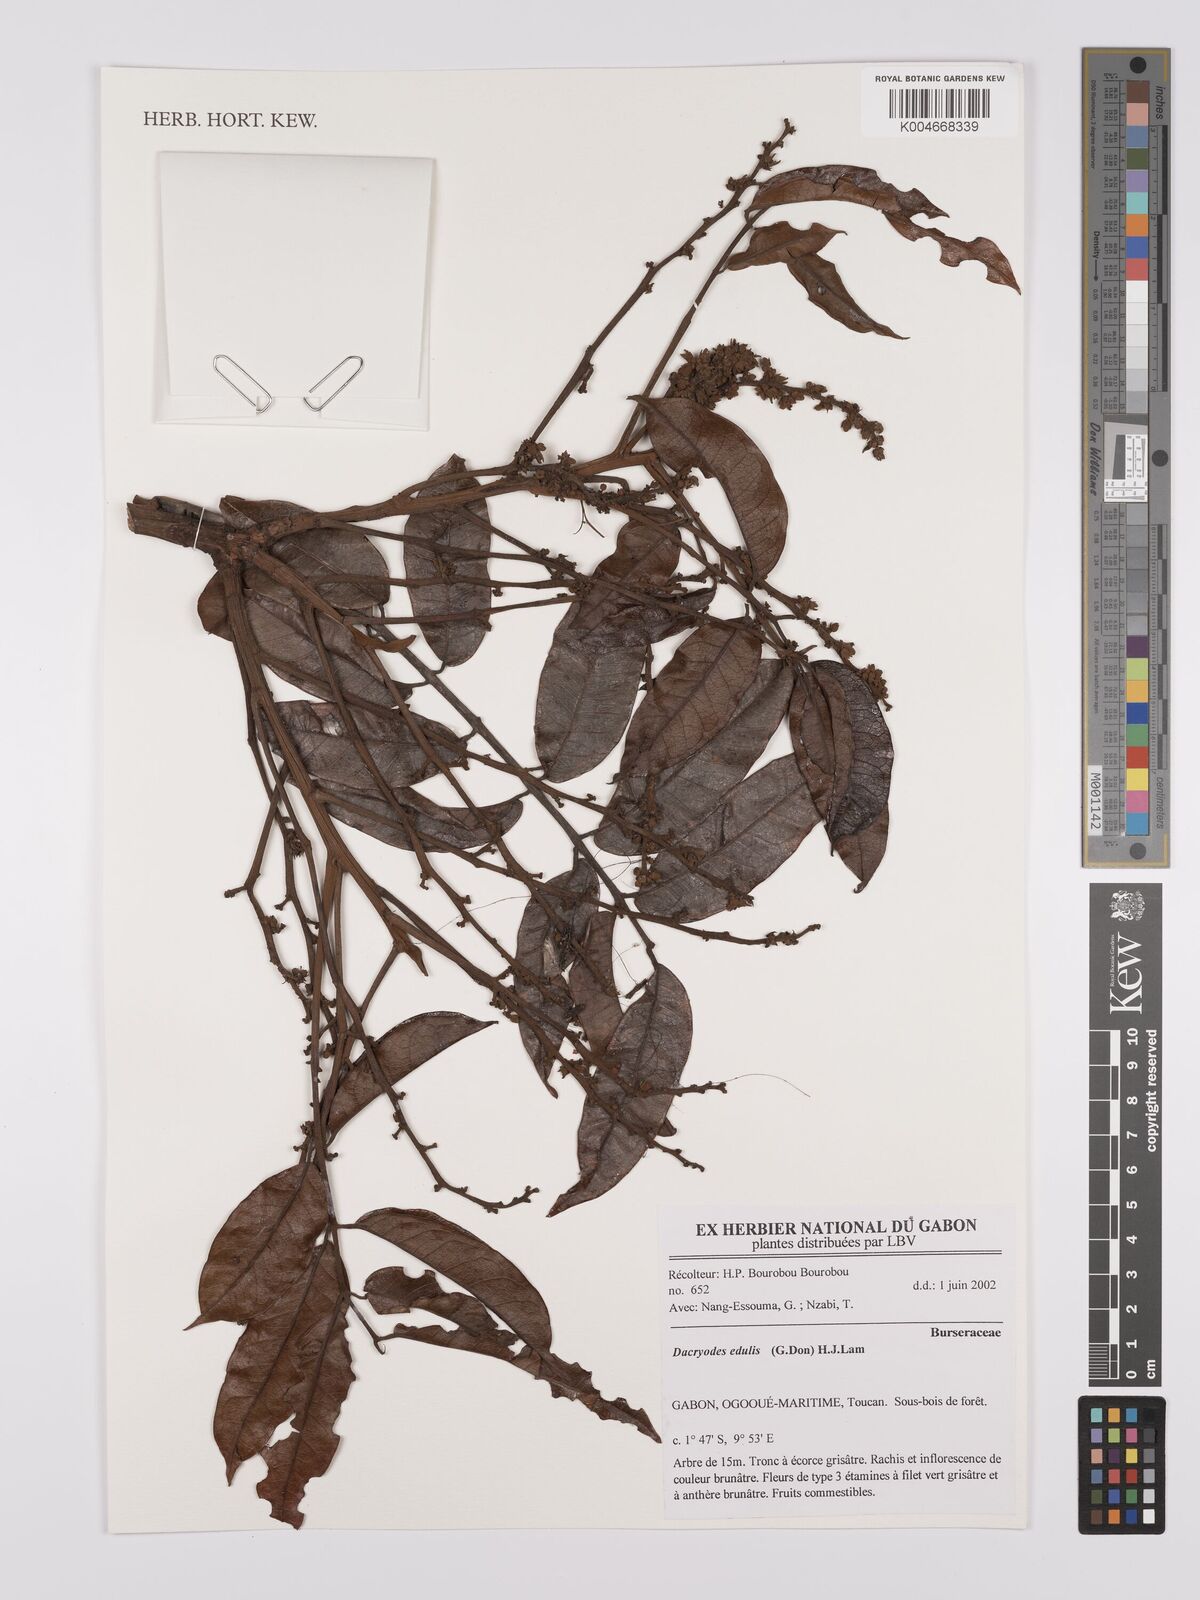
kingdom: Plantae
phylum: Tracheophyta
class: Magnoliopsida
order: Sapindales
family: Burseraceae
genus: Pachylobus
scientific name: Pachylobus edulis
